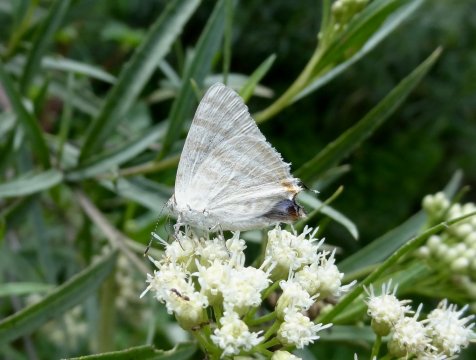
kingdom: Animalia
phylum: Arthropoda
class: Insecta
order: Lepidoptera
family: Lycaenidae
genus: Dolymorpha
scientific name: Dolymorpha jada
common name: Creamy Stripe-Streak
